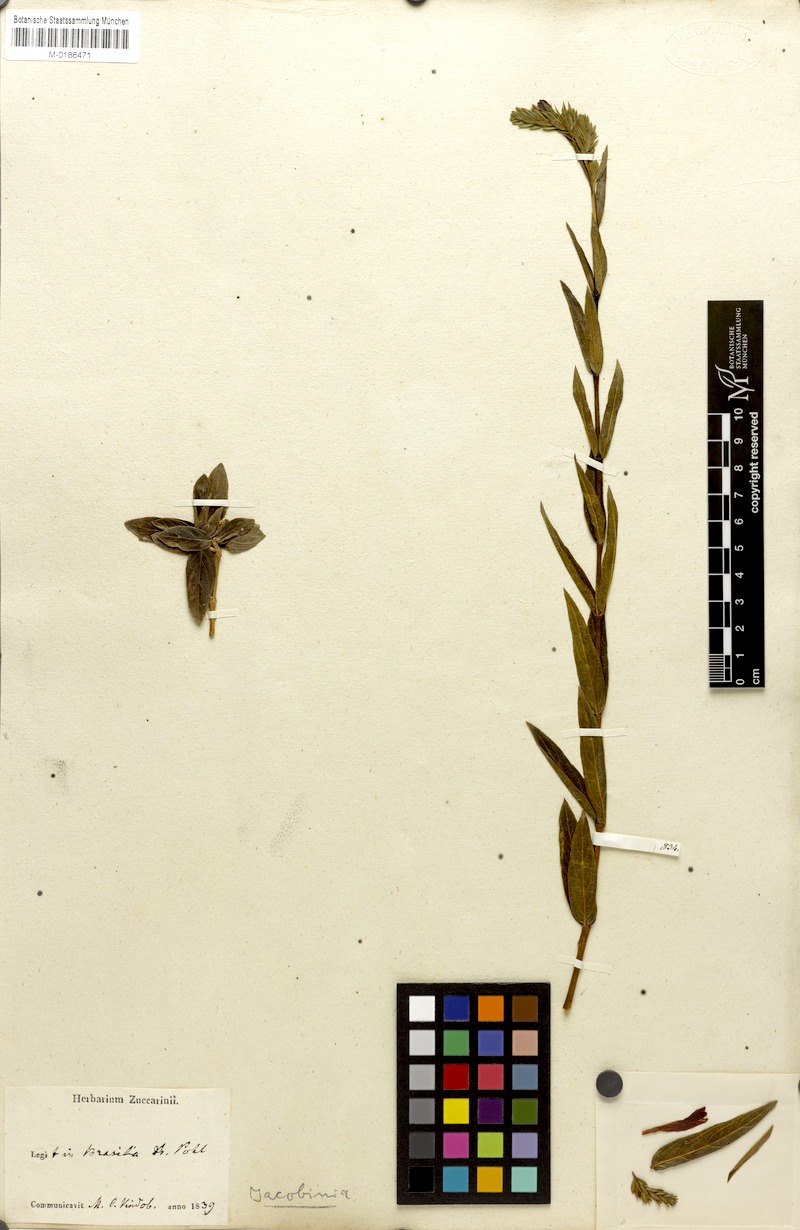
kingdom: Plantae
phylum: Tracheophyta
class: Magnoliopsida
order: Lamiales
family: Acanthaceae
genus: Dianthera
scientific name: Dianthera rigida
